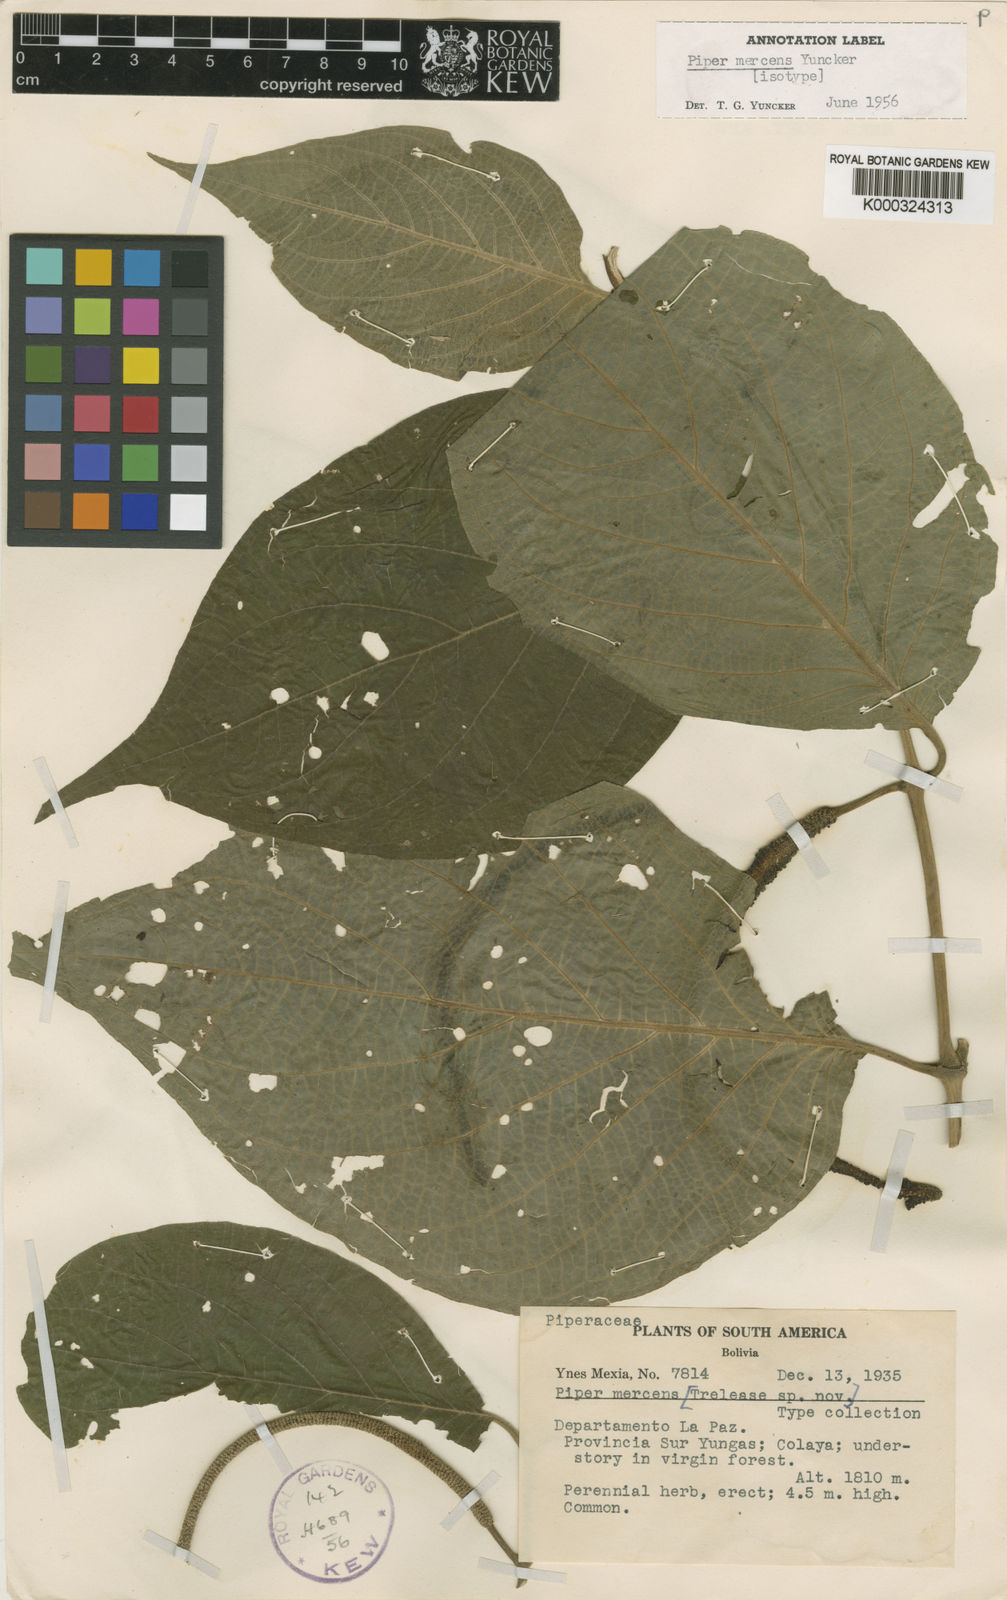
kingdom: Plantae
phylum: Tracheophyta
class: Magnoliopsida
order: Piperales
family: Piperaceae
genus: Piper
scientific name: Piper mercens
